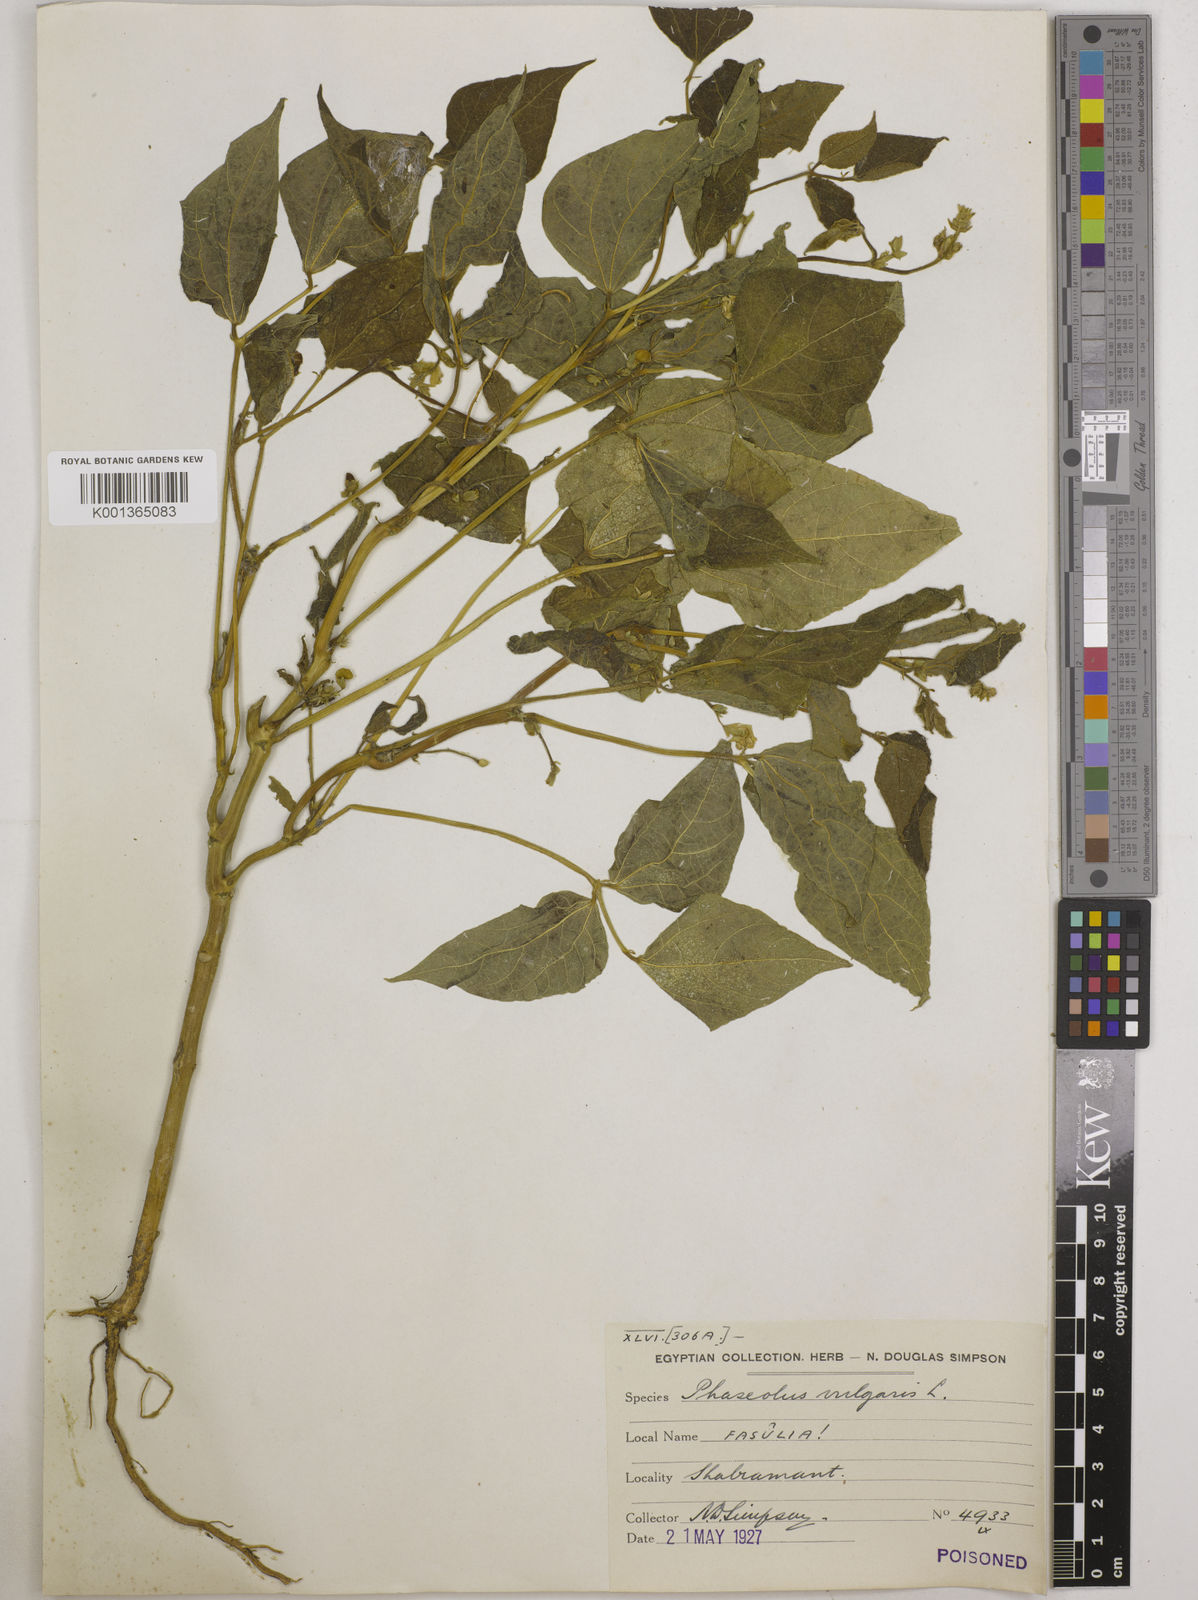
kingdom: Plantae
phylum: Tracheophyta
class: Magnoliopsida
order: Fabales
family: Fabaceae
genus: Phaseolus
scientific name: Phaseolus vulgaris
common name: Bean
